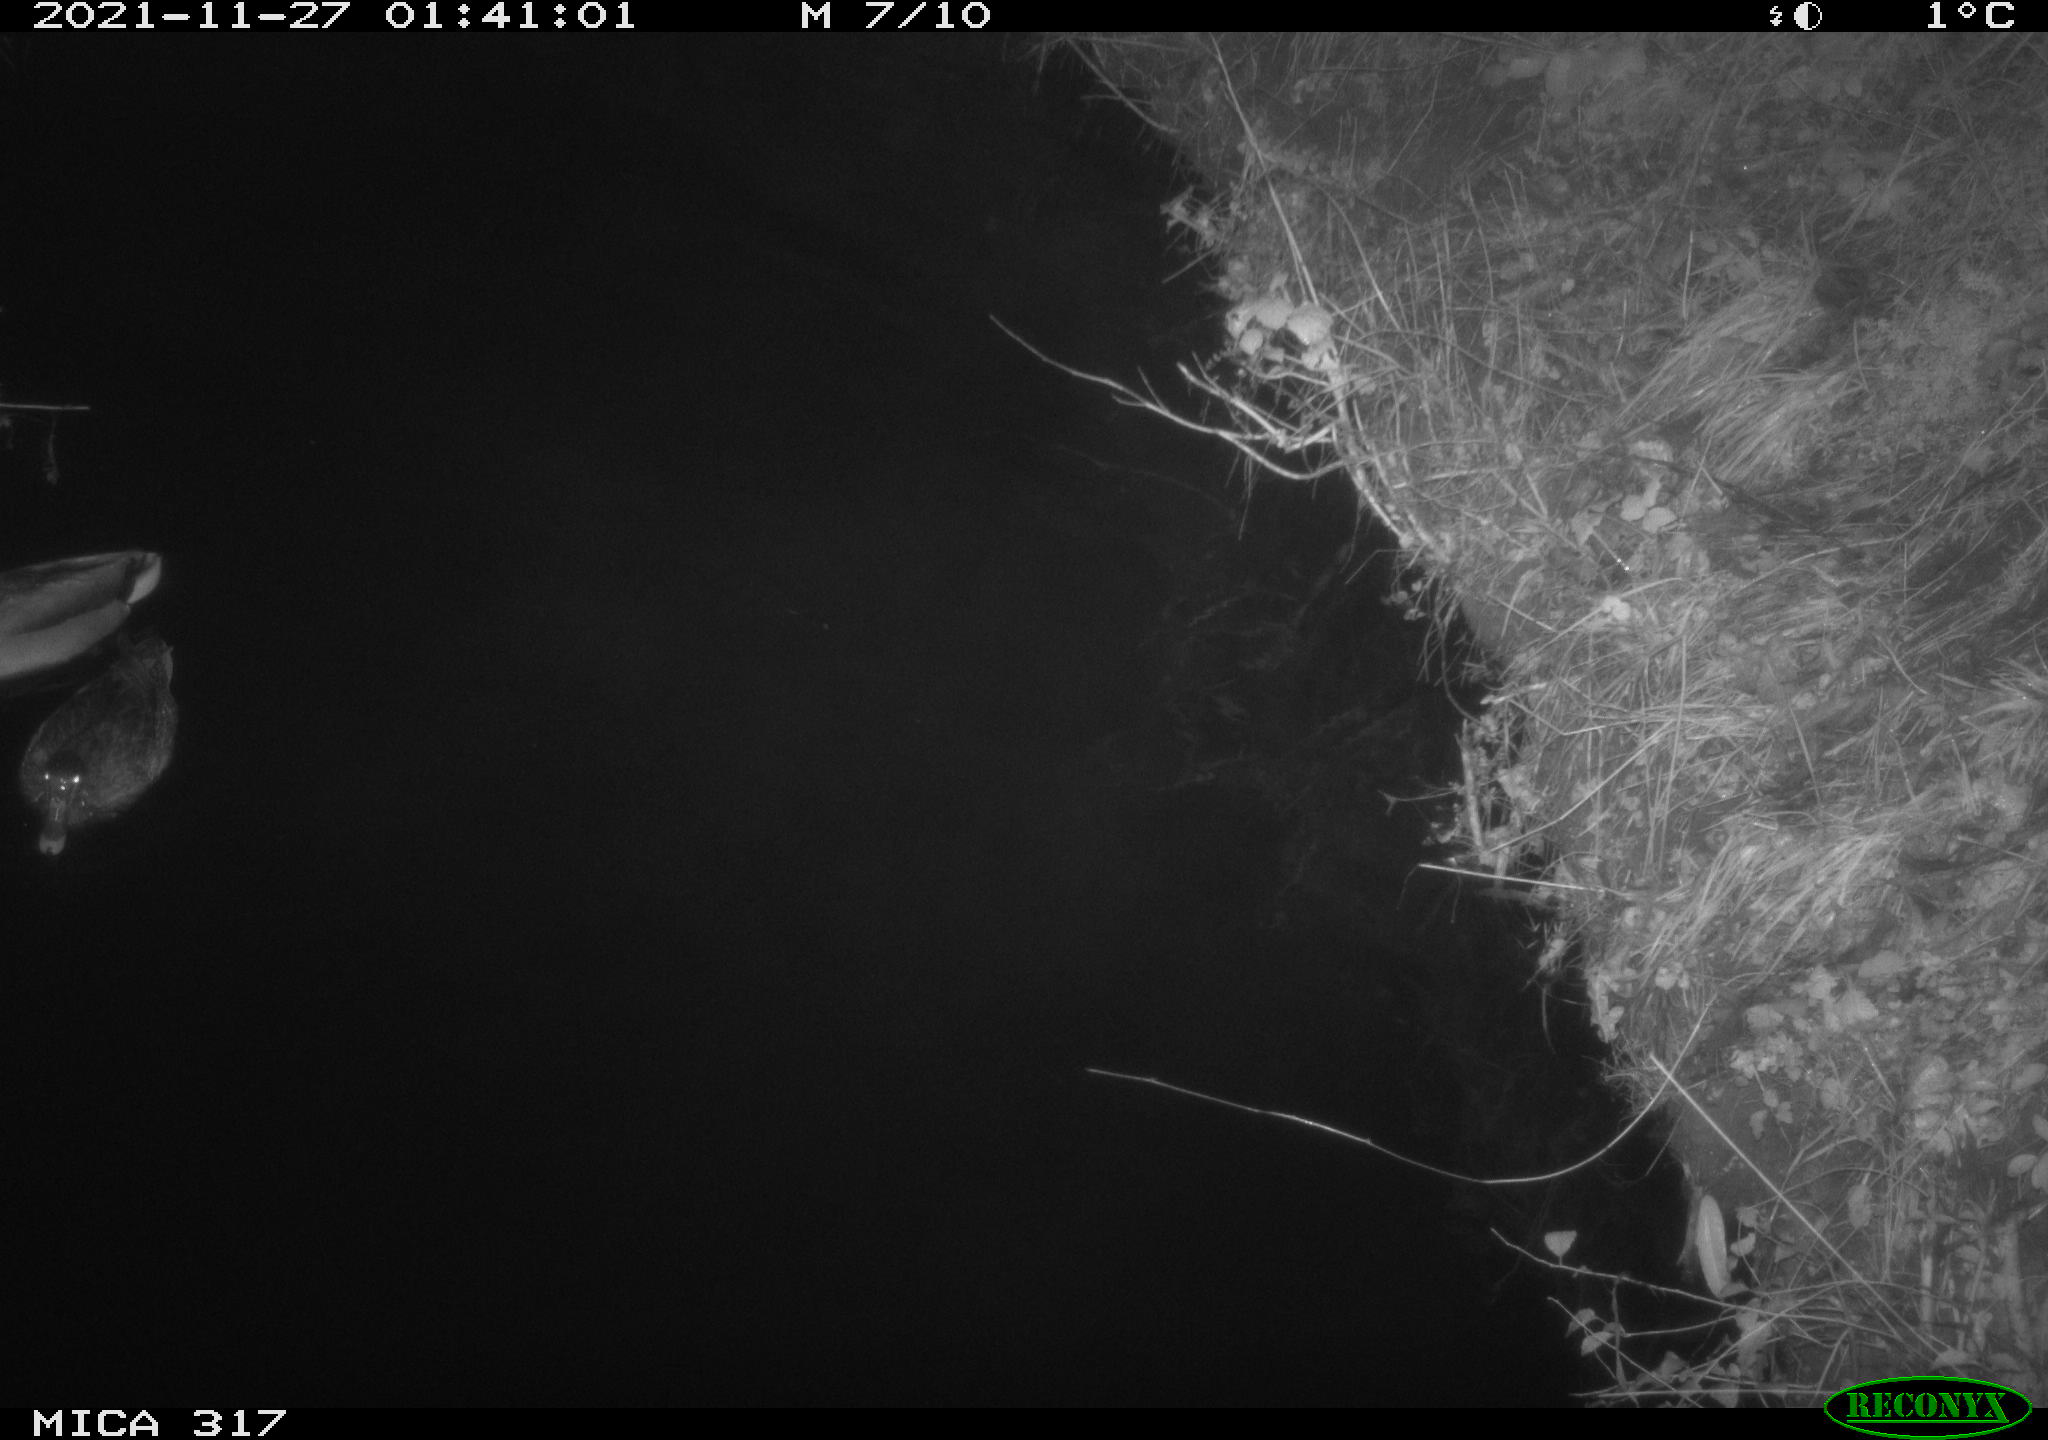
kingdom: Animalia
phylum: Chordata
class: Aves
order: Anseriformes
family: Anatidae
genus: Anas
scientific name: Anas platyrhynchos
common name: Mallard
